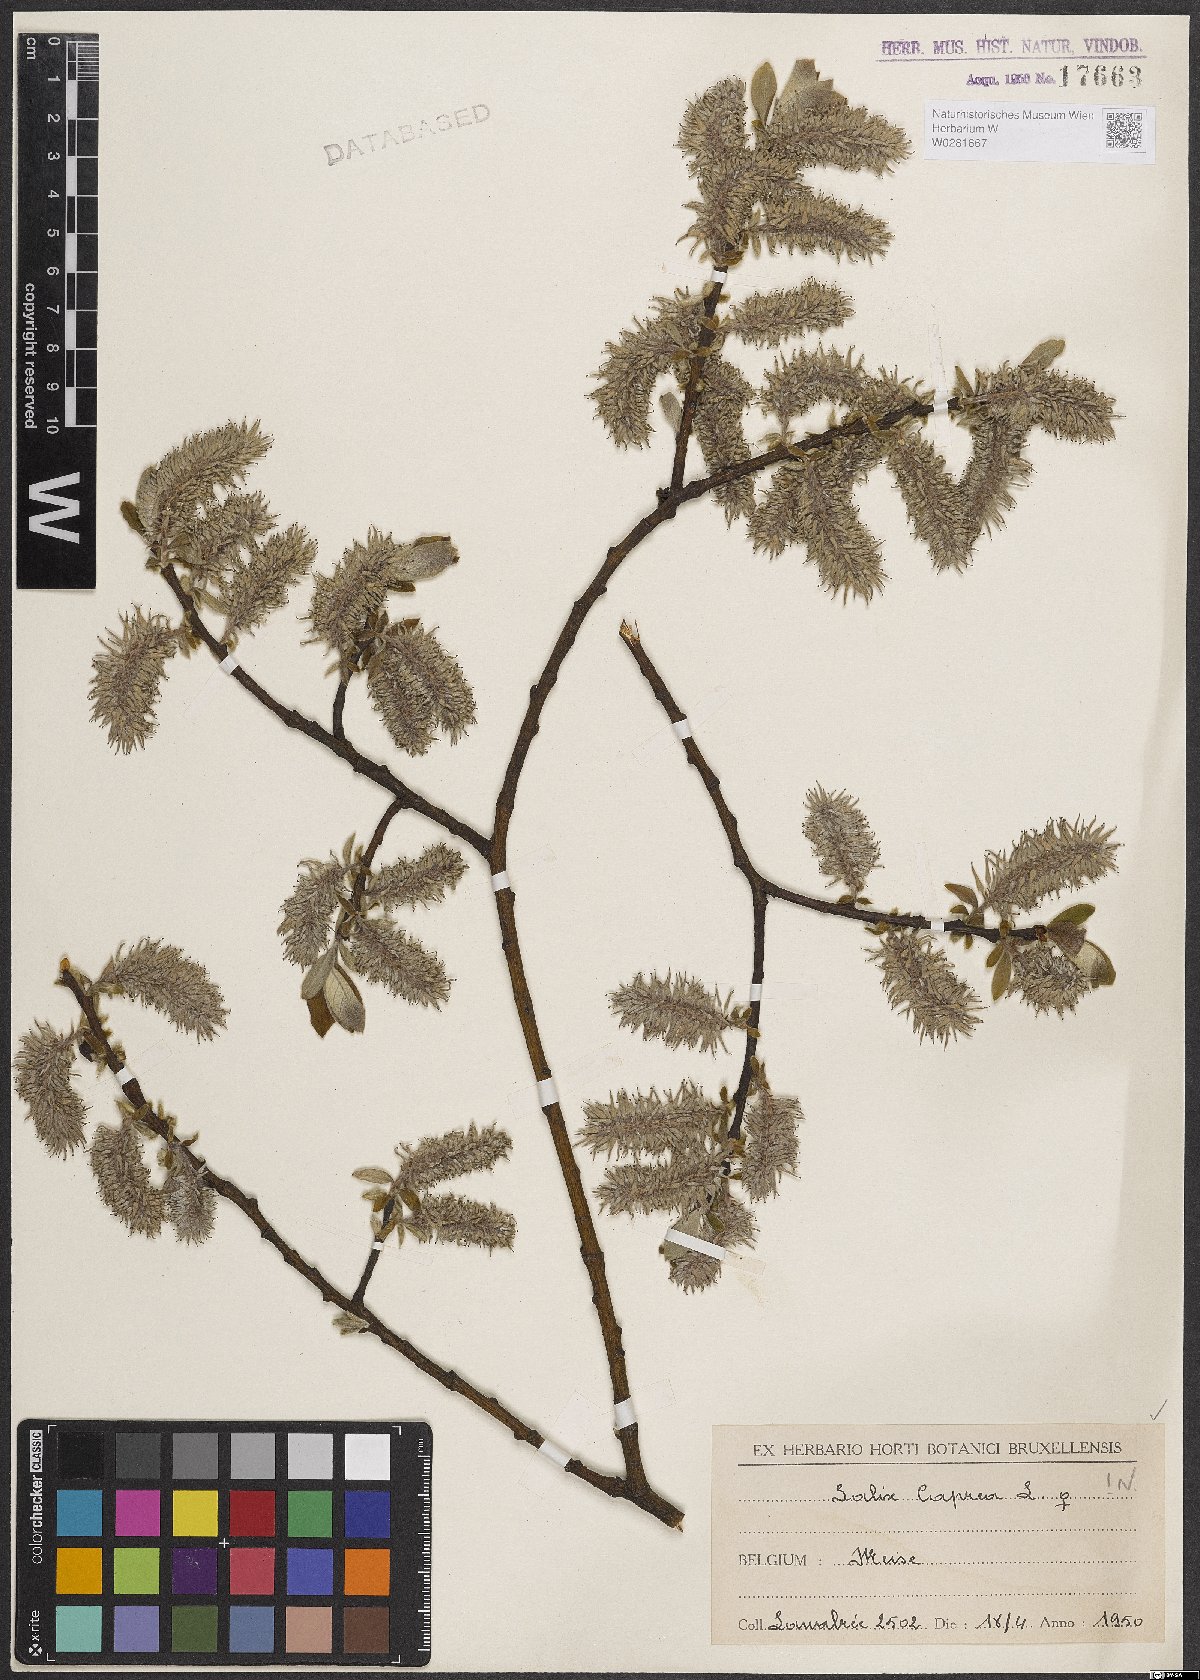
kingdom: Plantae
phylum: Tracheophyta
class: Magnoliopsida
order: Malpighiales
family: Salicaceae
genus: Salix
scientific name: Salix caprea
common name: Goat willow
